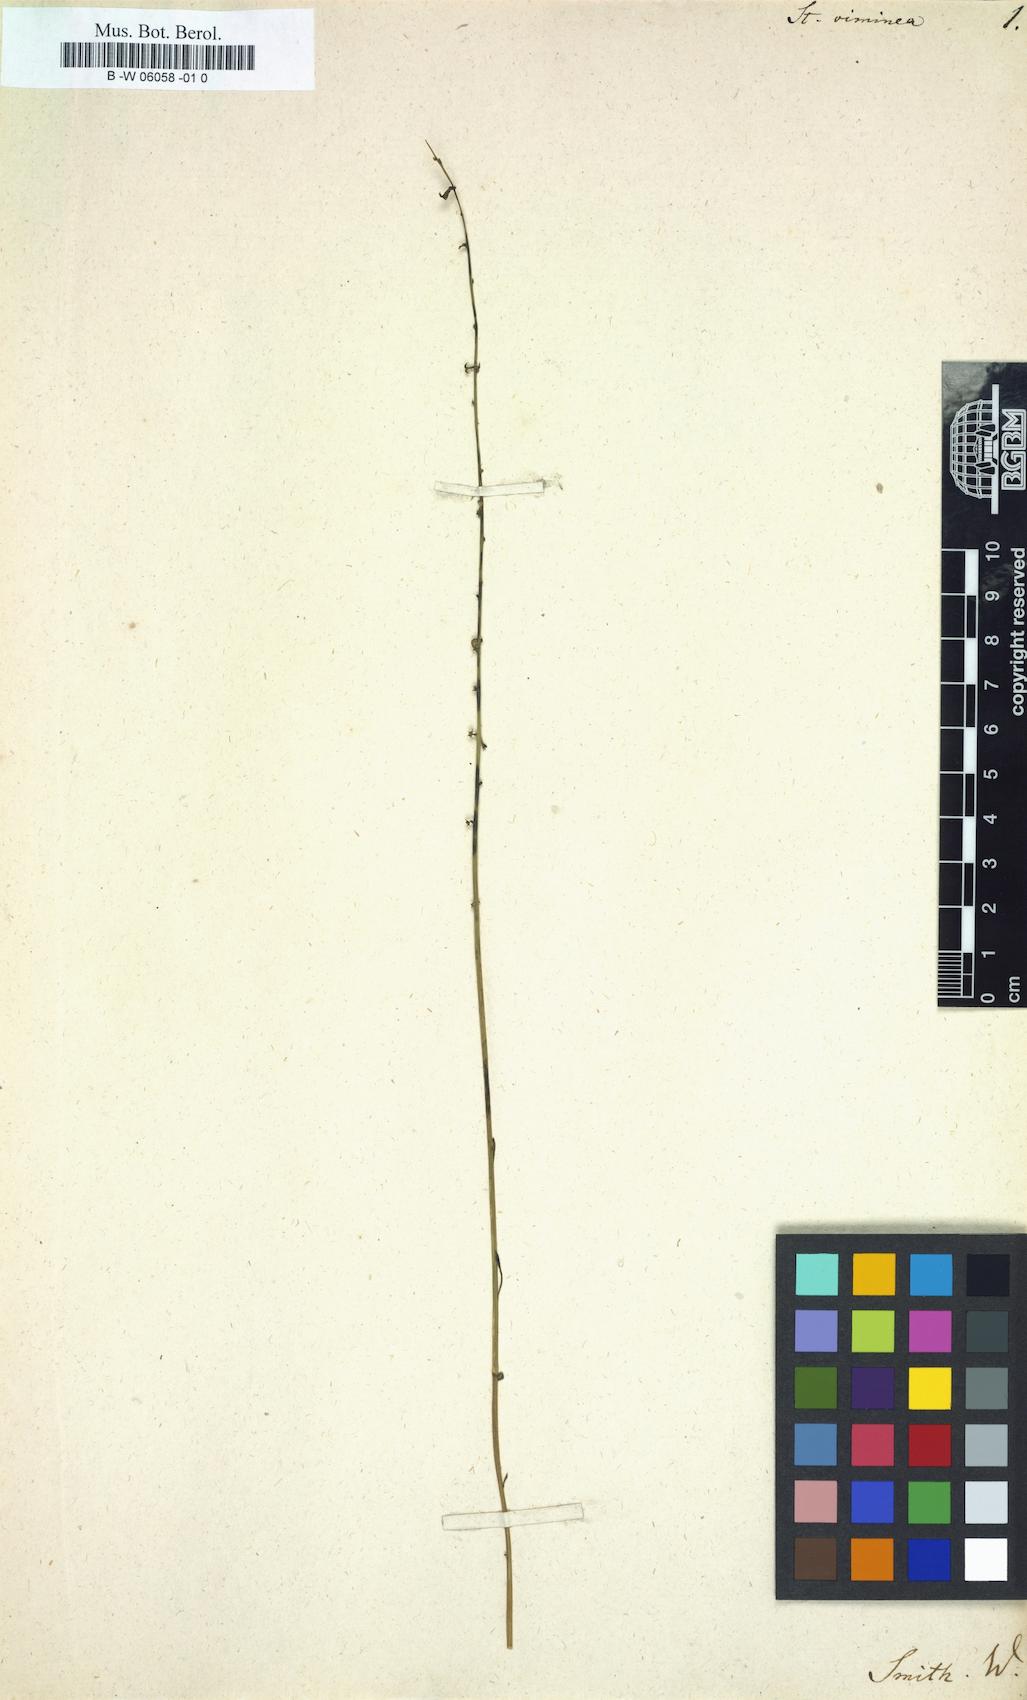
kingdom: Plantae
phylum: Tracheophyta
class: Magnoliopsida
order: Celastrales
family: Celastraceae
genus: Stackhousia
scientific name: Stackhousia viminea
